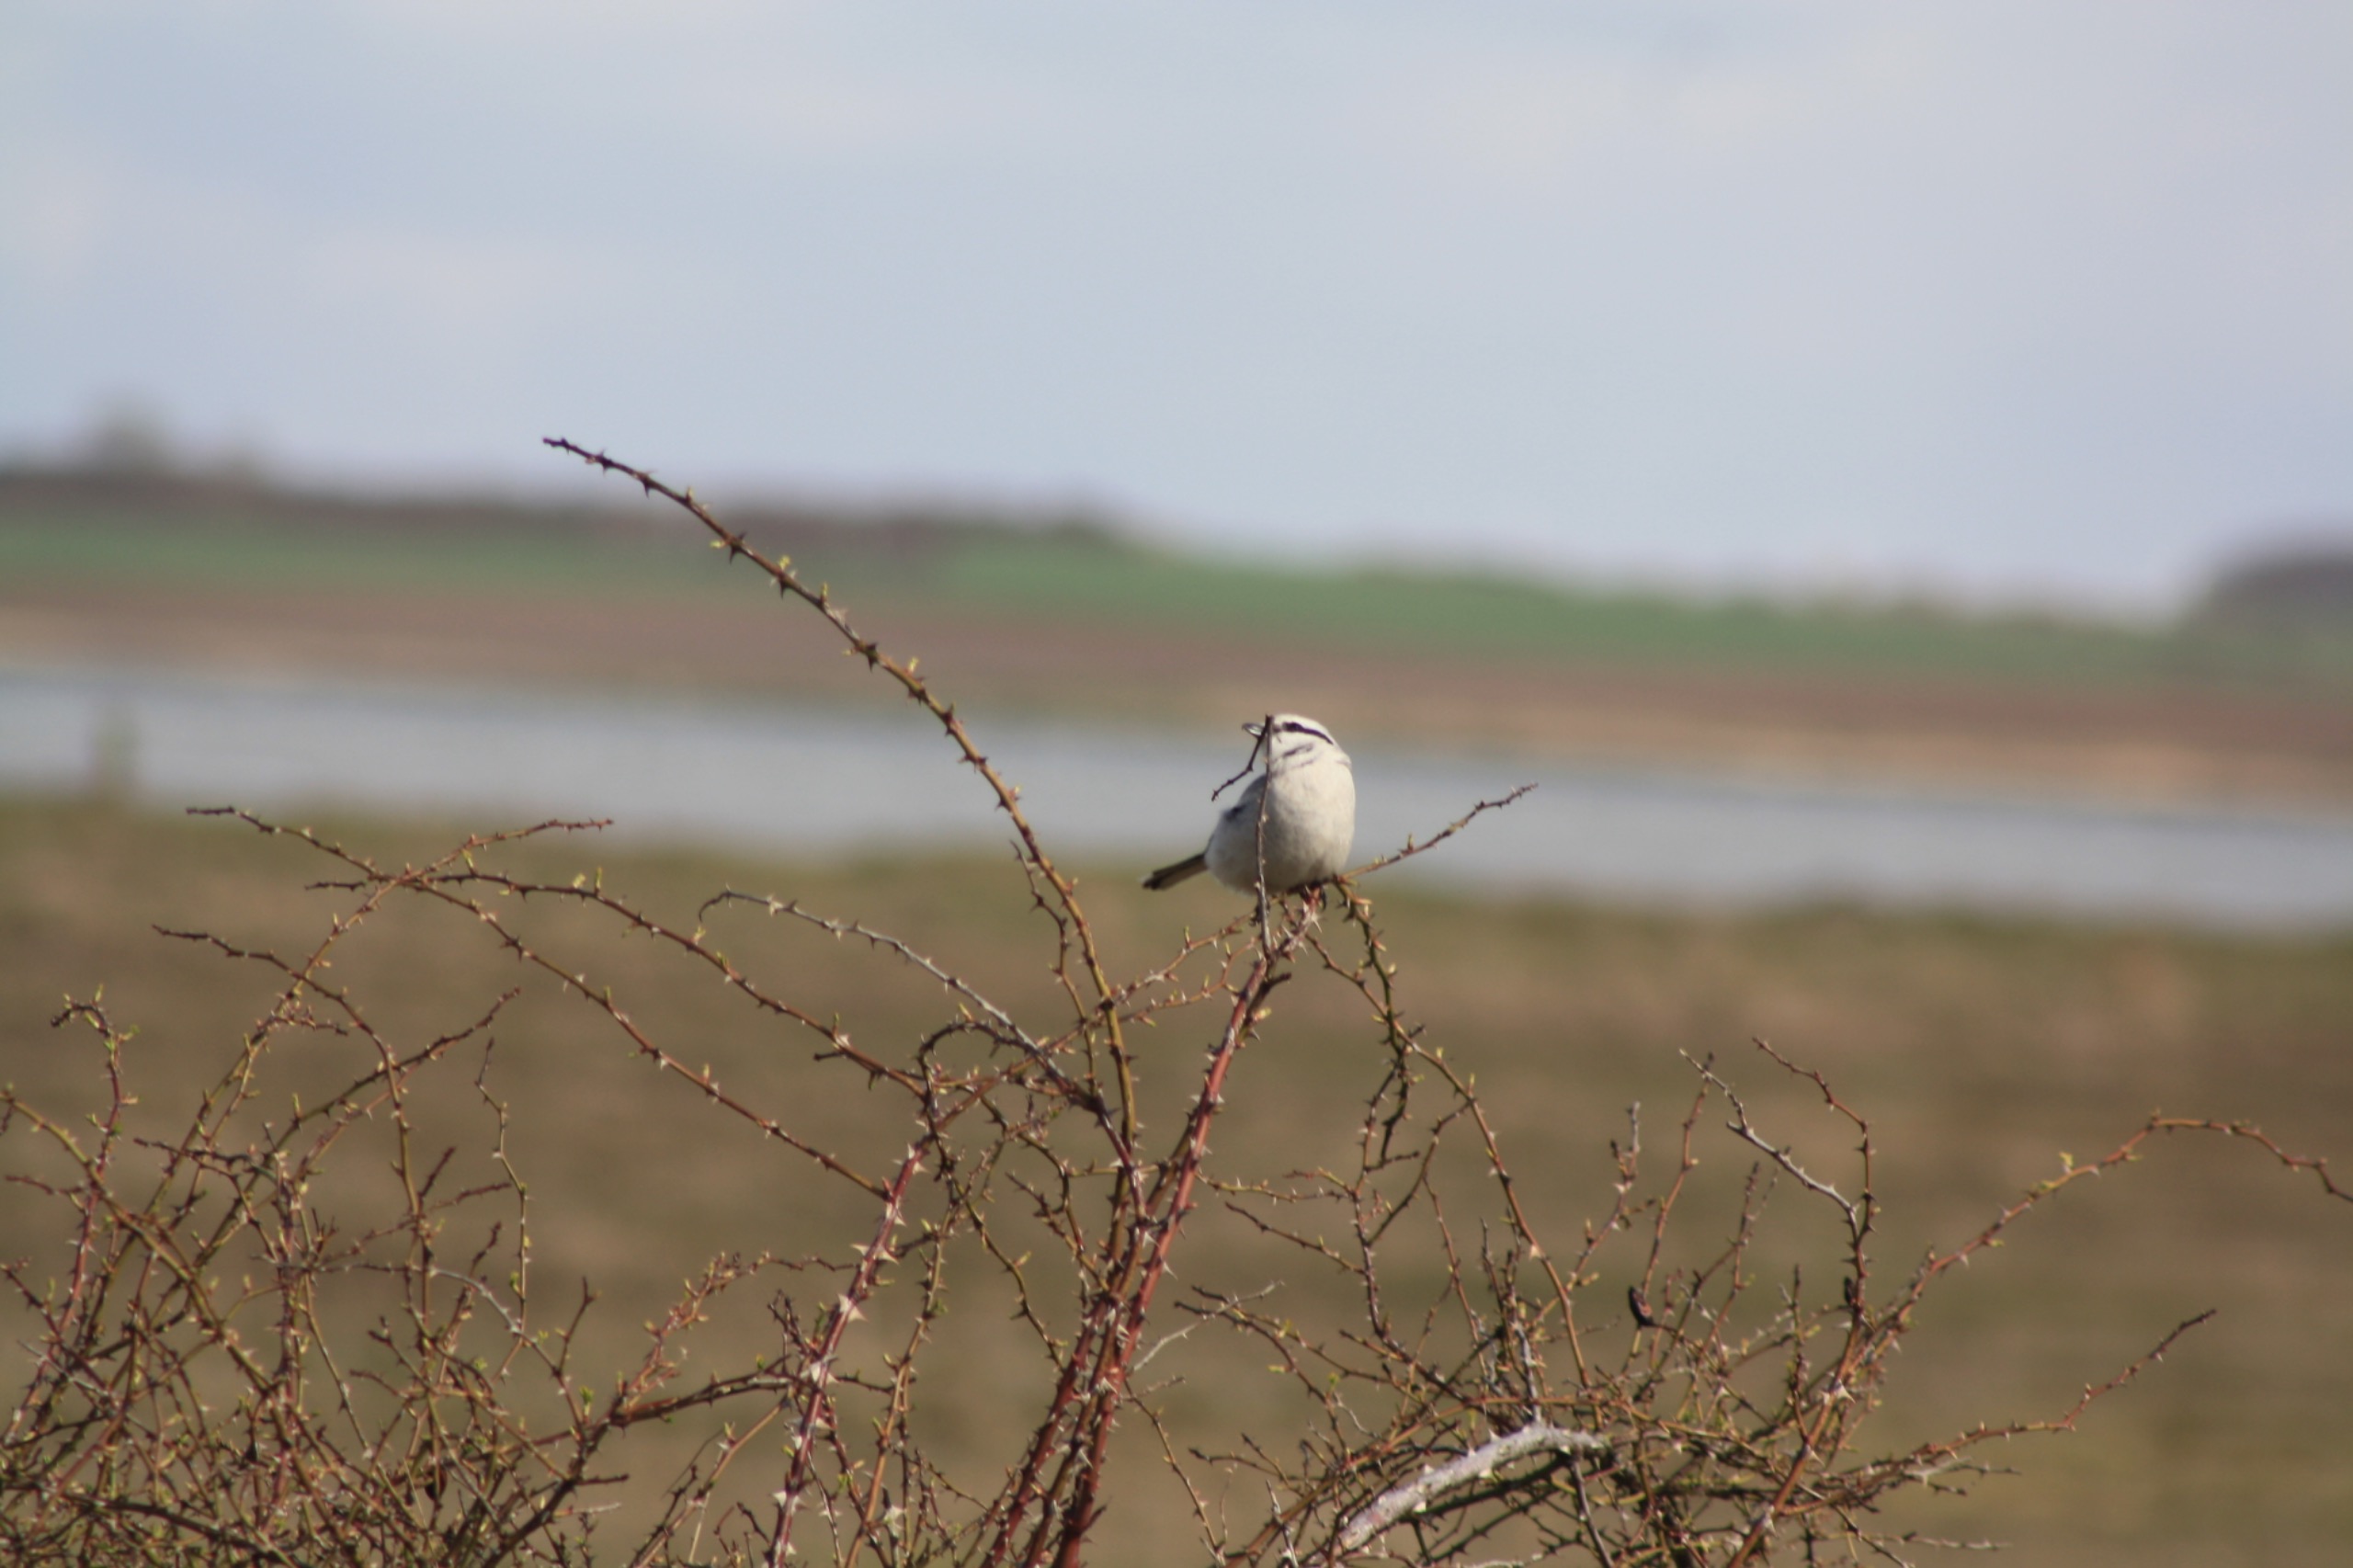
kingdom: Animalia
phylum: Chordata
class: Aves
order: Passeriformes
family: Laniidae
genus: Lanius
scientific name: Lanius excubitor
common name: Stor tornskade
